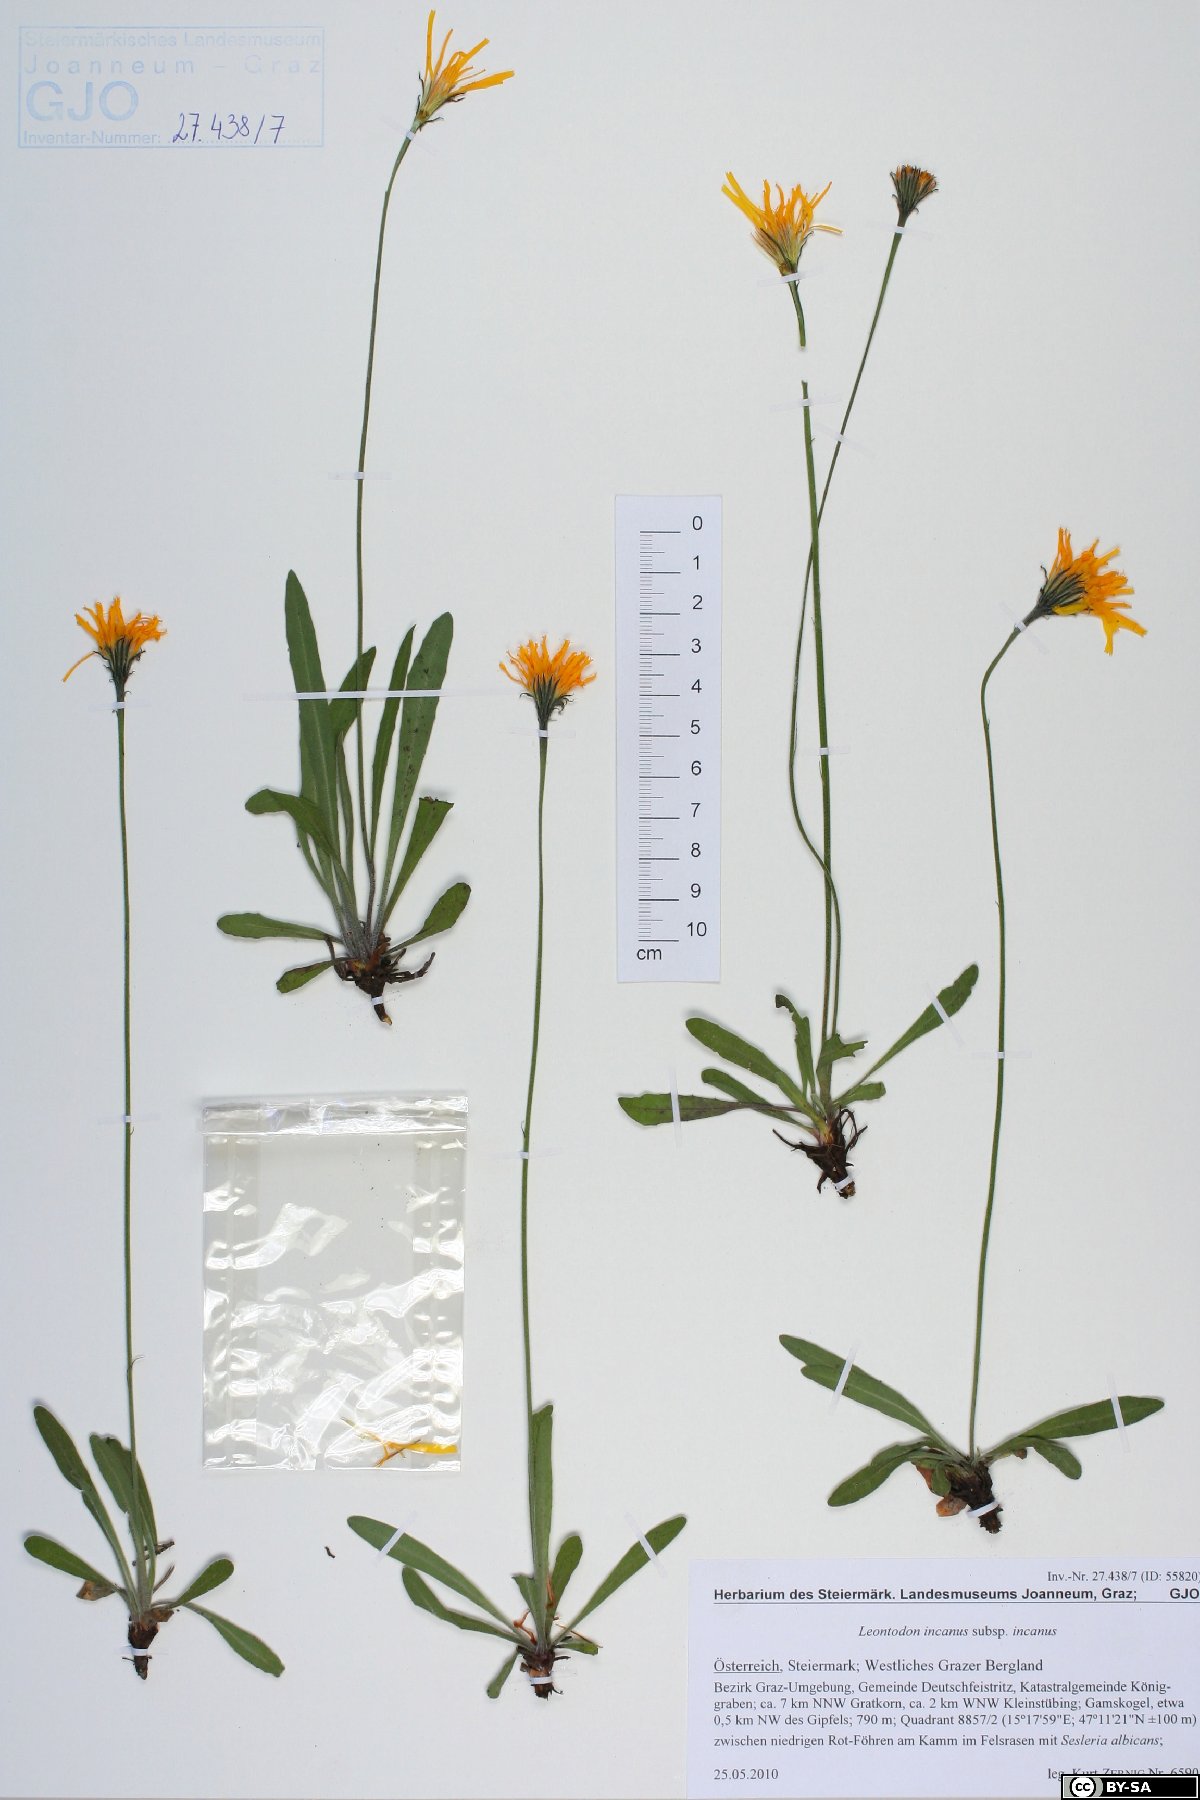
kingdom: Plantae
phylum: Tracheophyta
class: Magnoliopsida
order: Asterales
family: Asteraceae
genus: Leontodon
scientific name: Leontodon incanus
